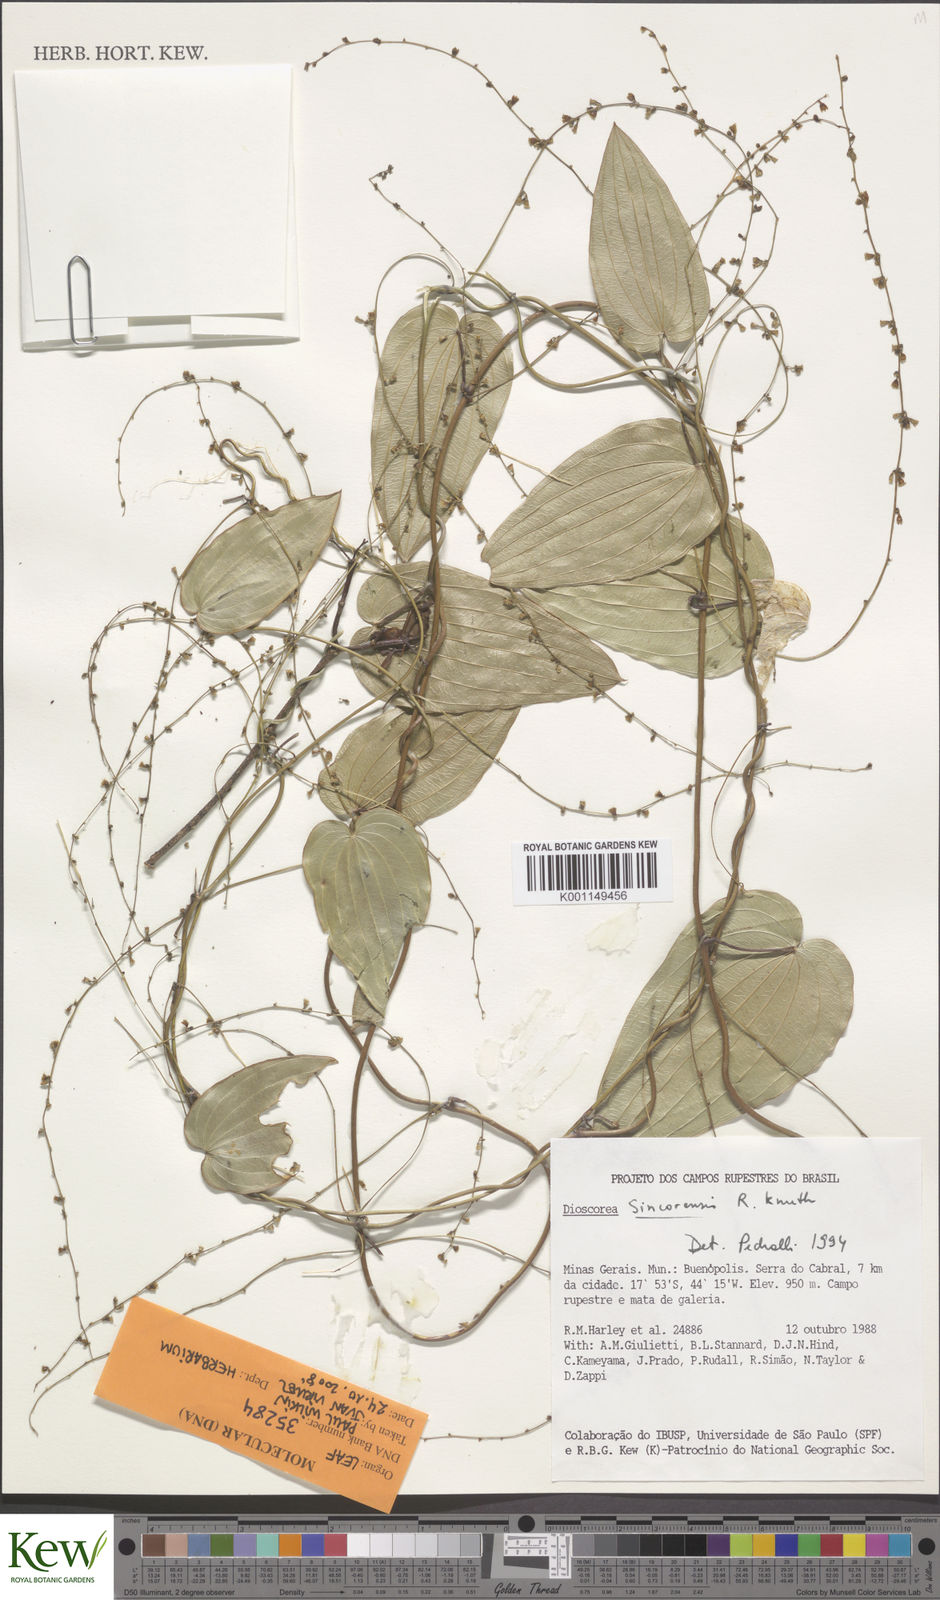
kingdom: Plantae
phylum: Tracheophyta
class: Liliopsida
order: Dioscoreales
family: Dioscoreaceae
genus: Dioscorea
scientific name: Dioscorea sincorensis
